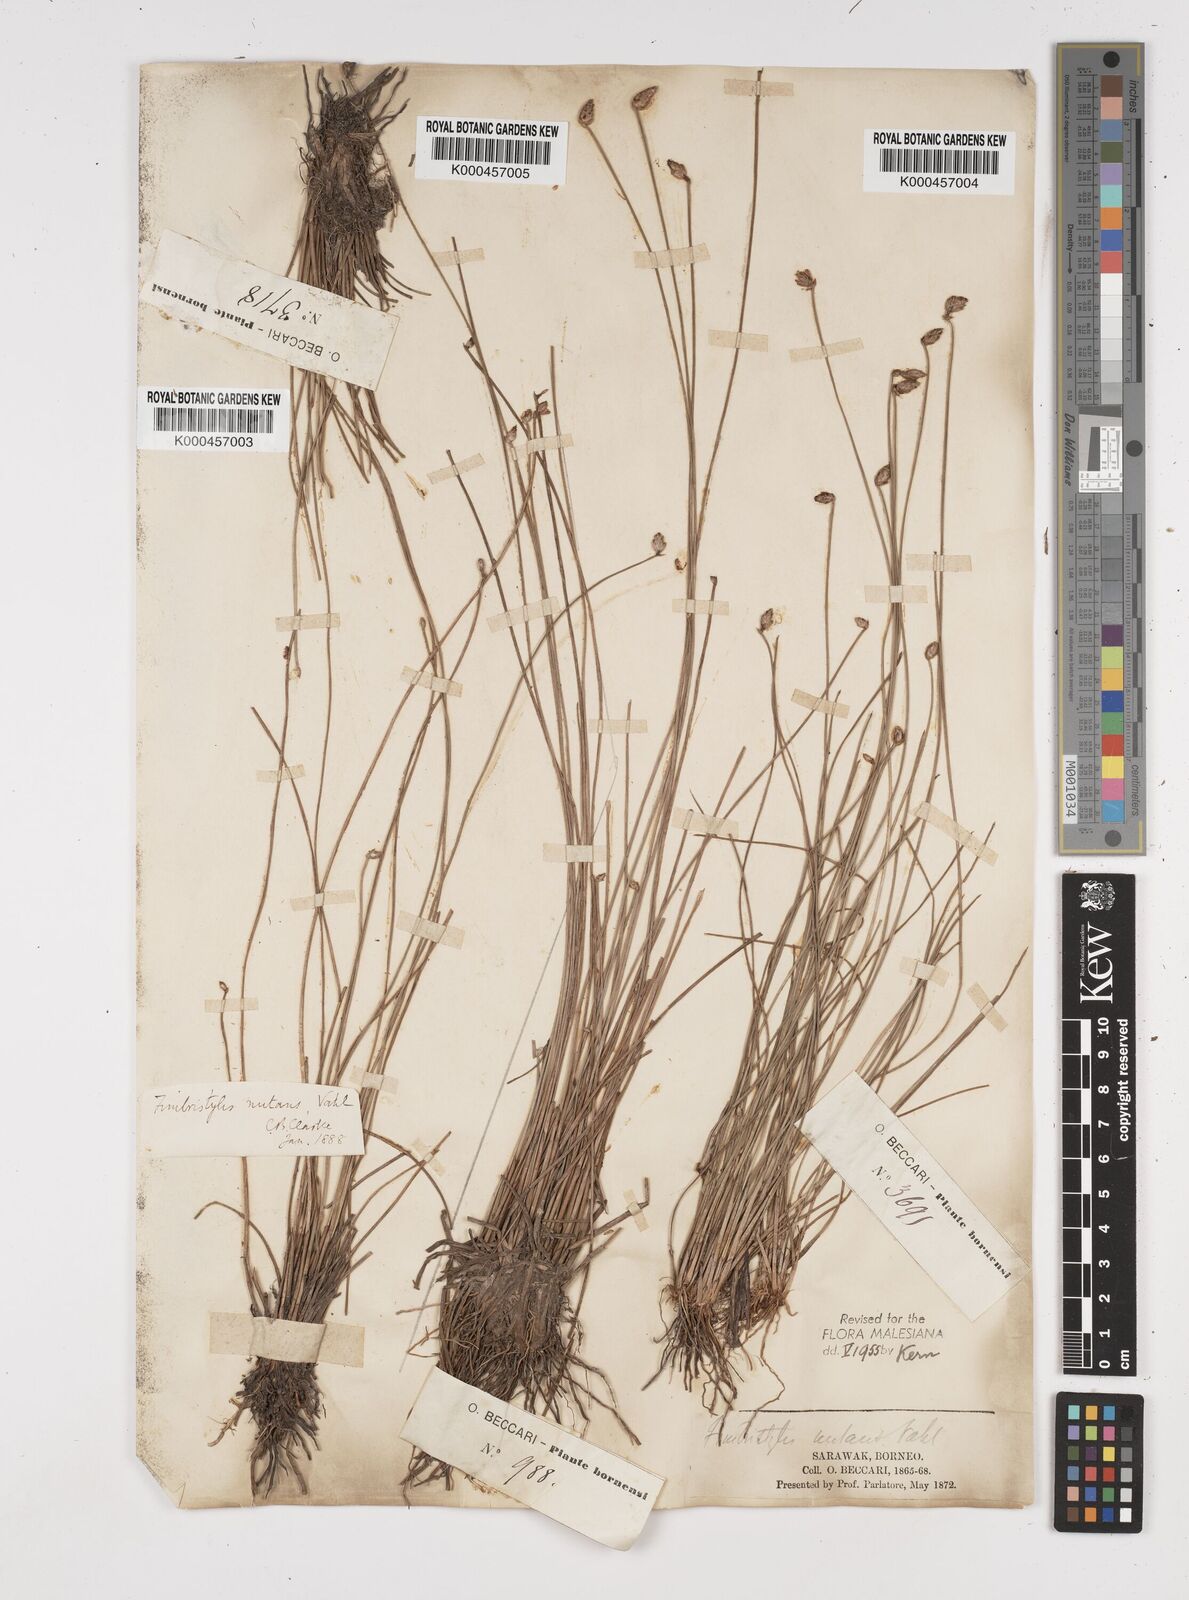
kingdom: Plantae
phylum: Tracheophyta
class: Liliopsida
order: Poales
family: Cyperaceae
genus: Fimbristylis
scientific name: Fimbristylis nutans
